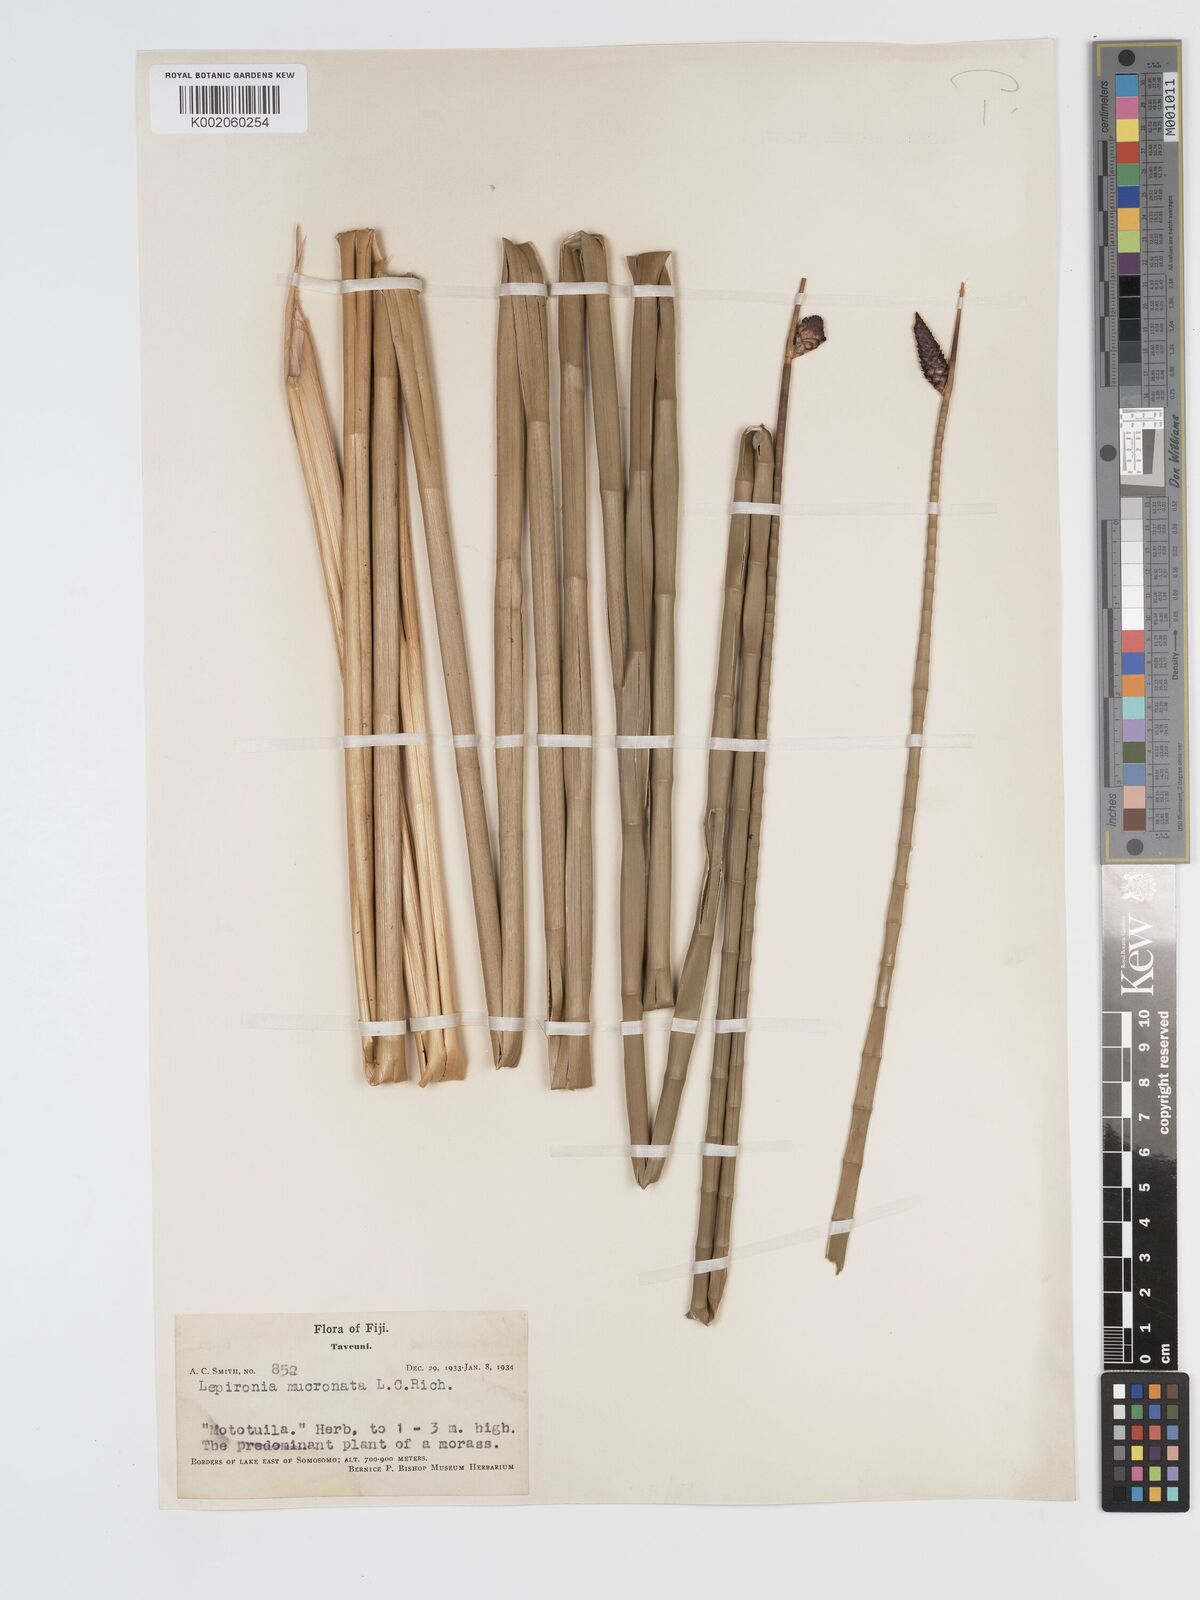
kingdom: Plantae
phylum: Tracheophyta
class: Liliopsida
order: Poales
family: Cyperaceae
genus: Lepironia
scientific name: Lepironia articulata
